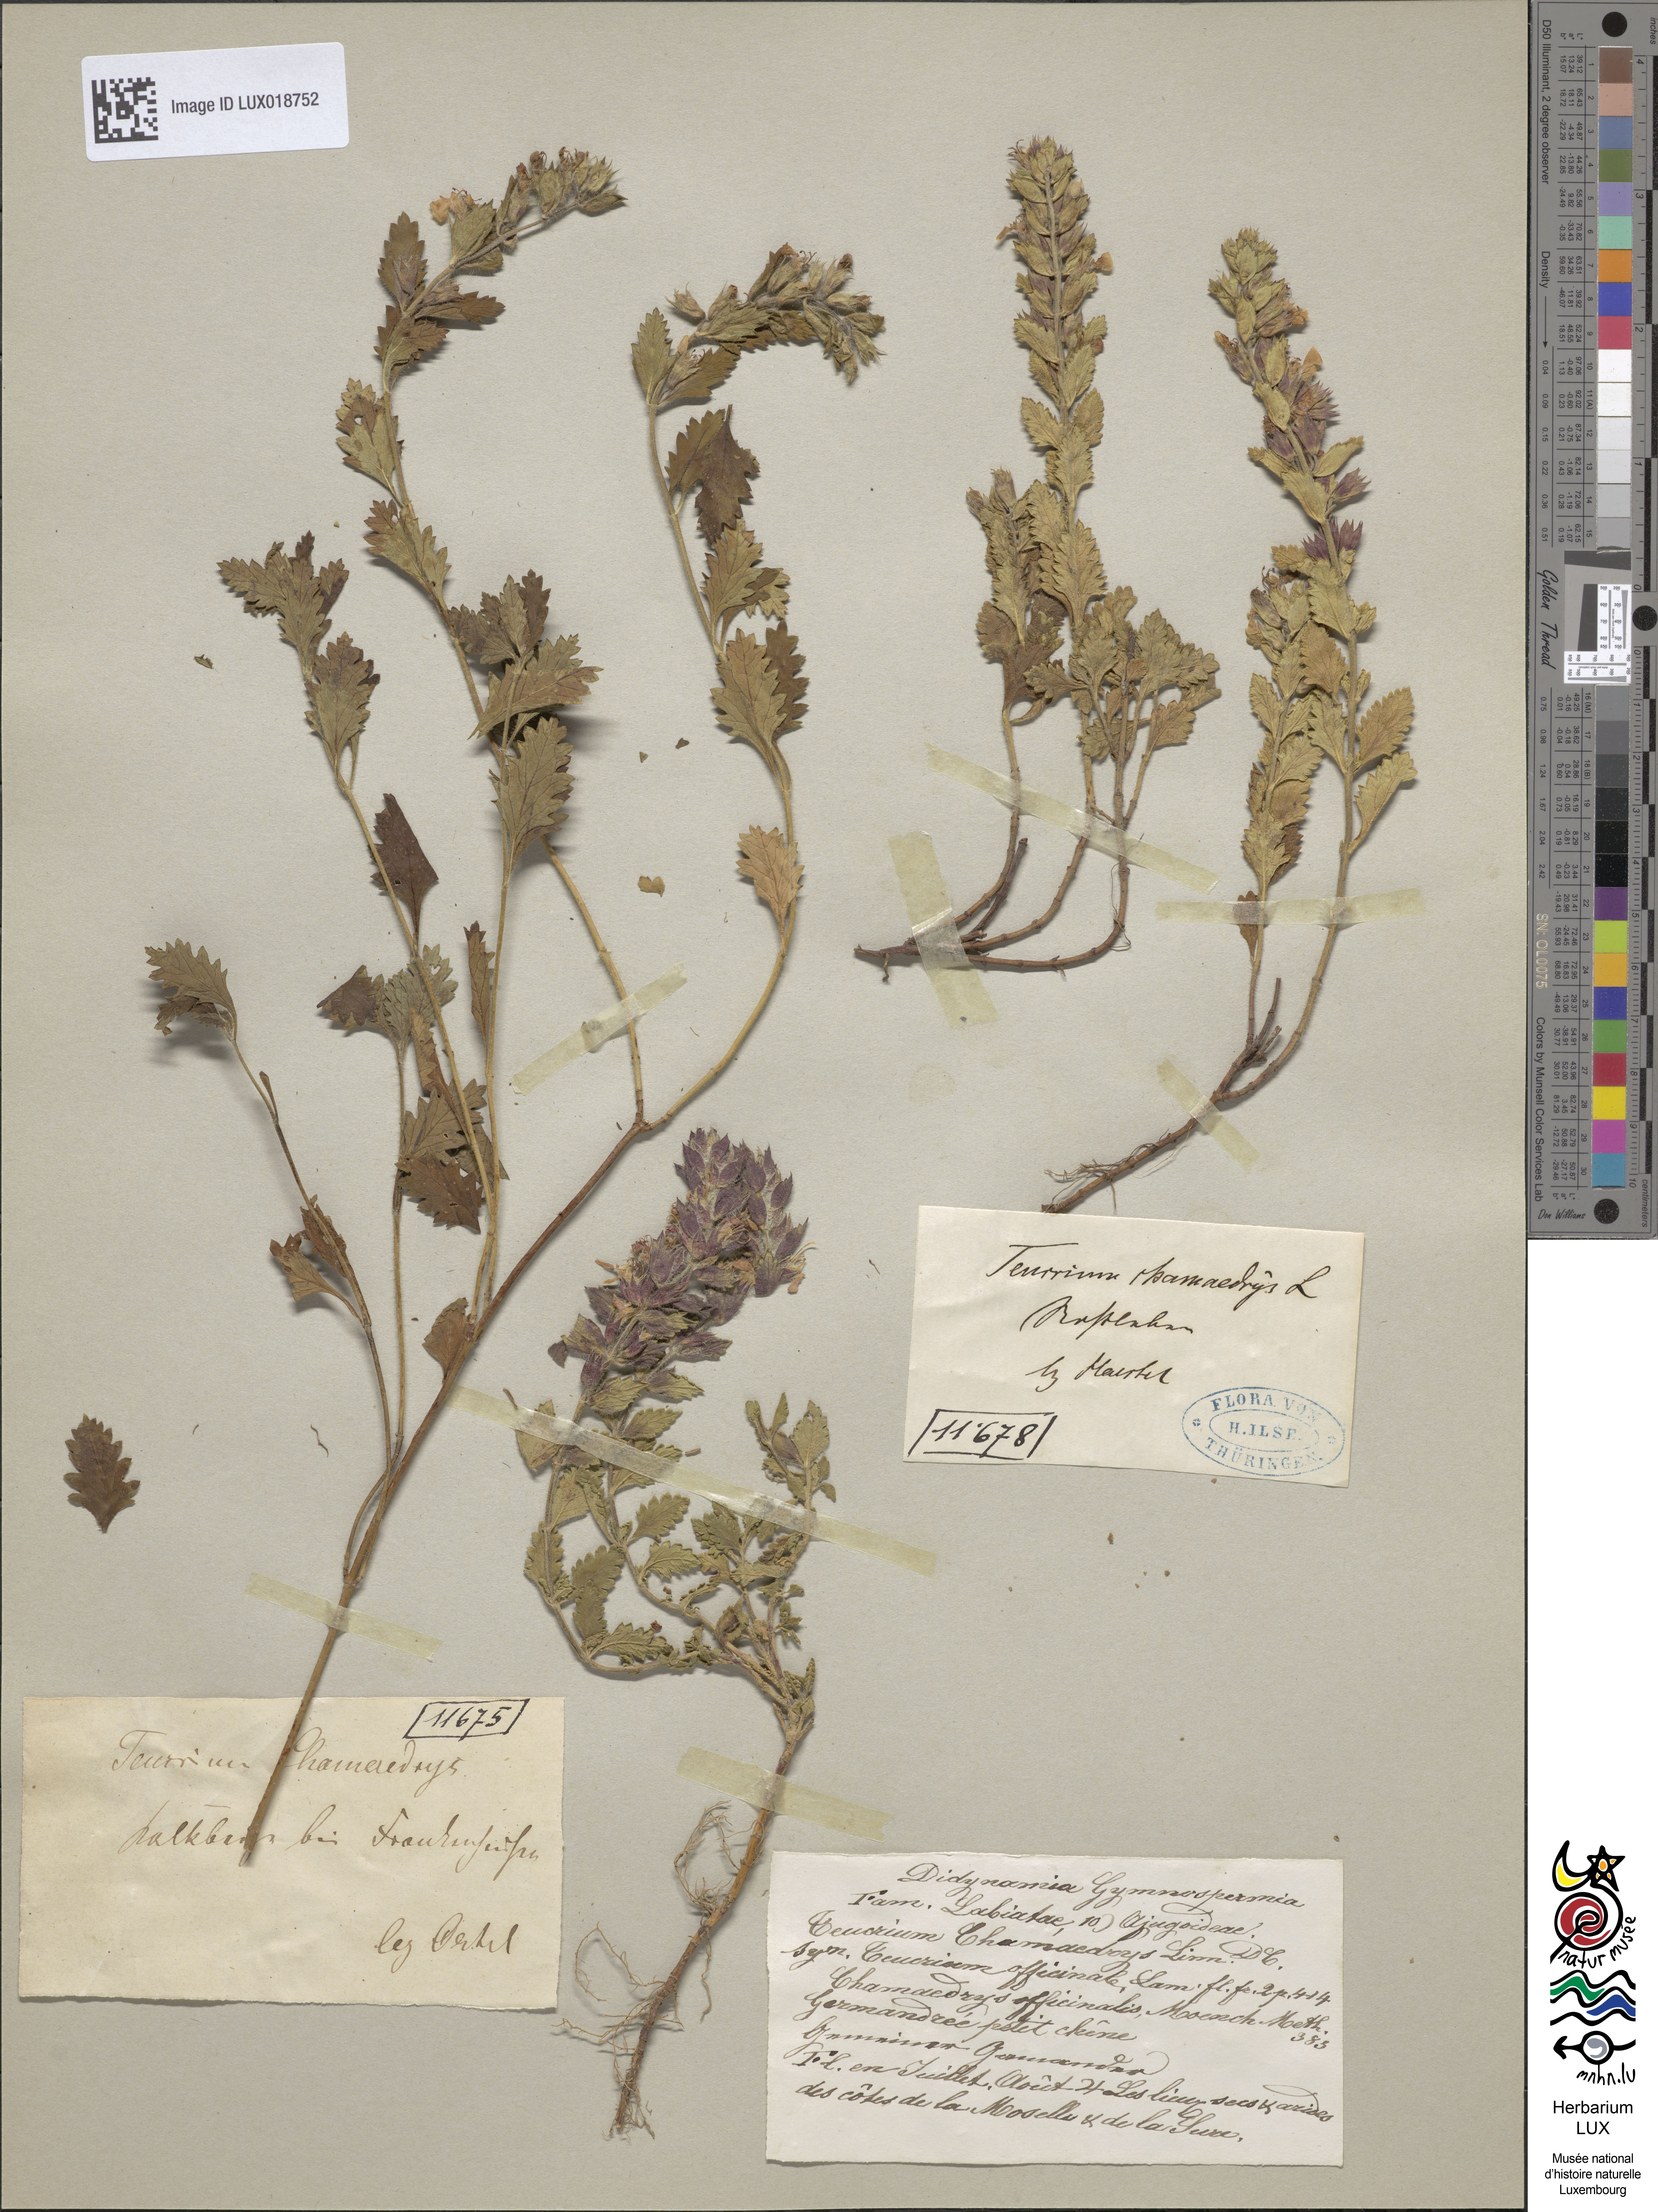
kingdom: Plantae
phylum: Tracheophyta
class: Magnoliopsida
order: Lamiales
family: Lamiaceae
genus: Teucrium
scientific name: Teucrium chamaedrys
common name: Wall germander
